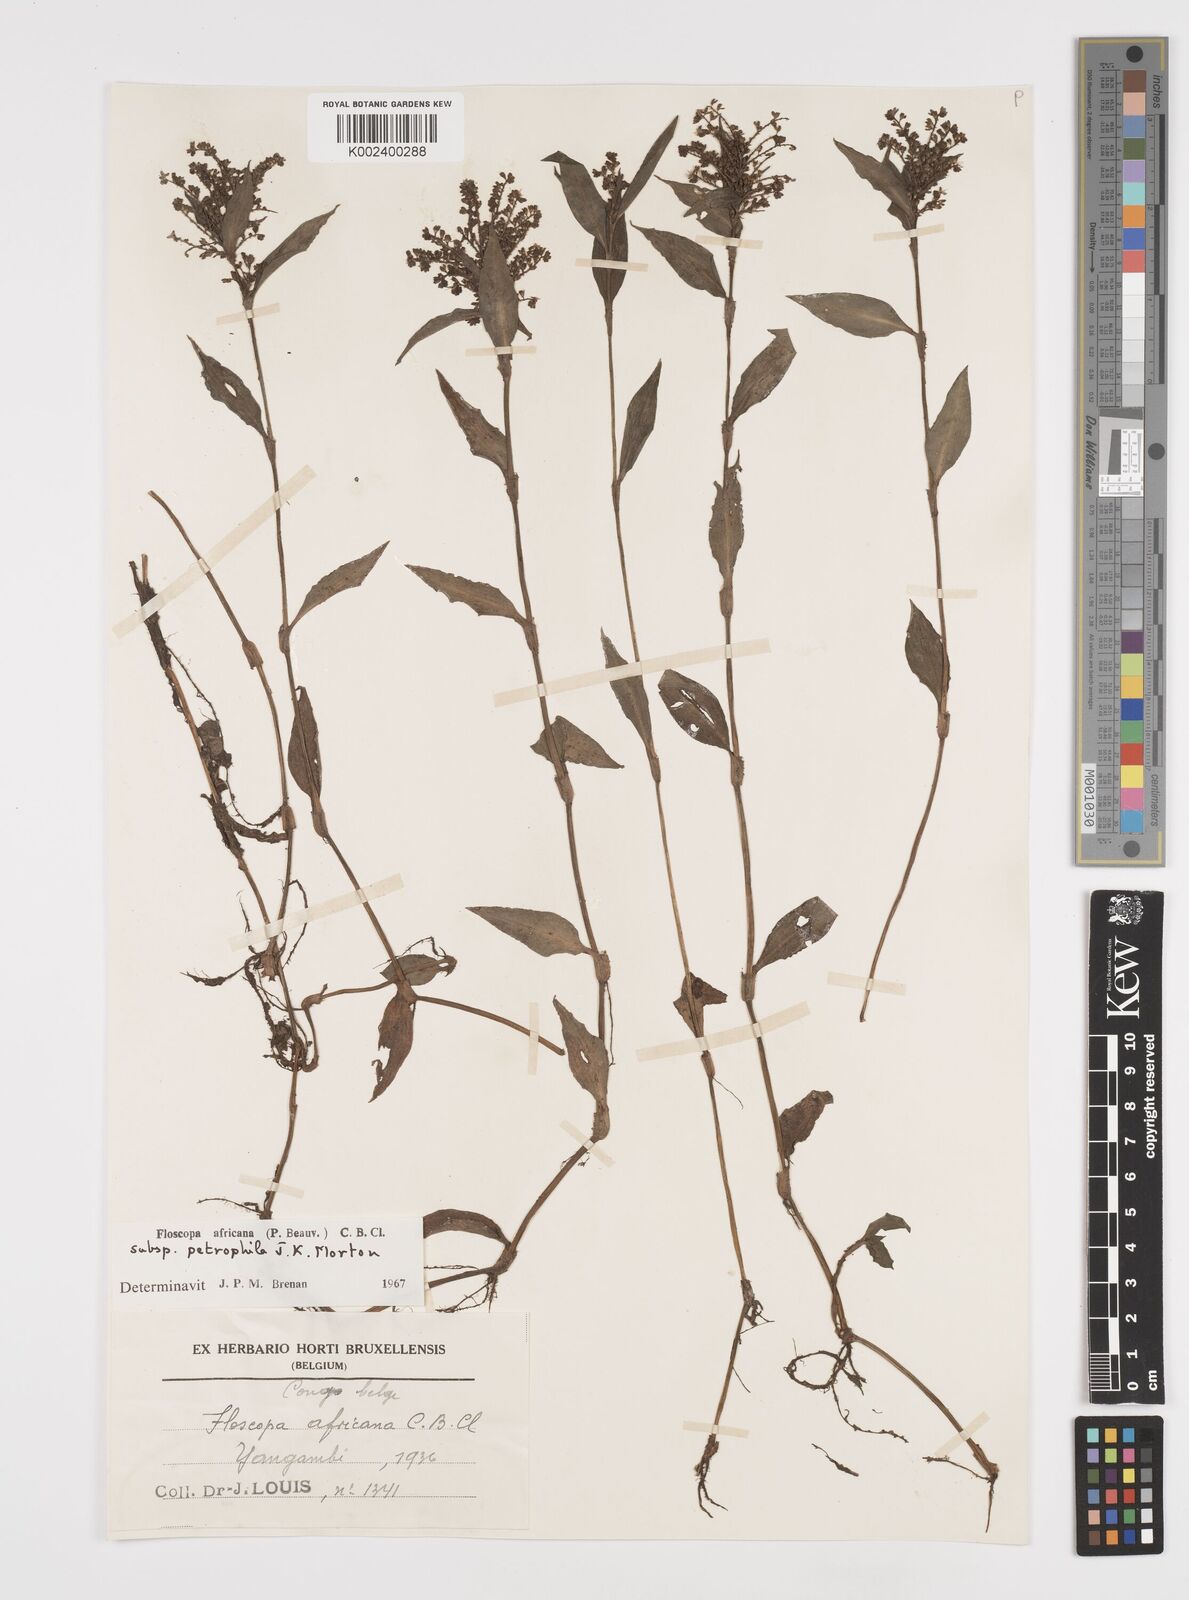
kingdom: Plantae
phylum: Tracheophyta
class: Liliopsida
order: Commelinales
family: Commelinaceae
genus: Floscopa
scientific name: Floscopa africana
